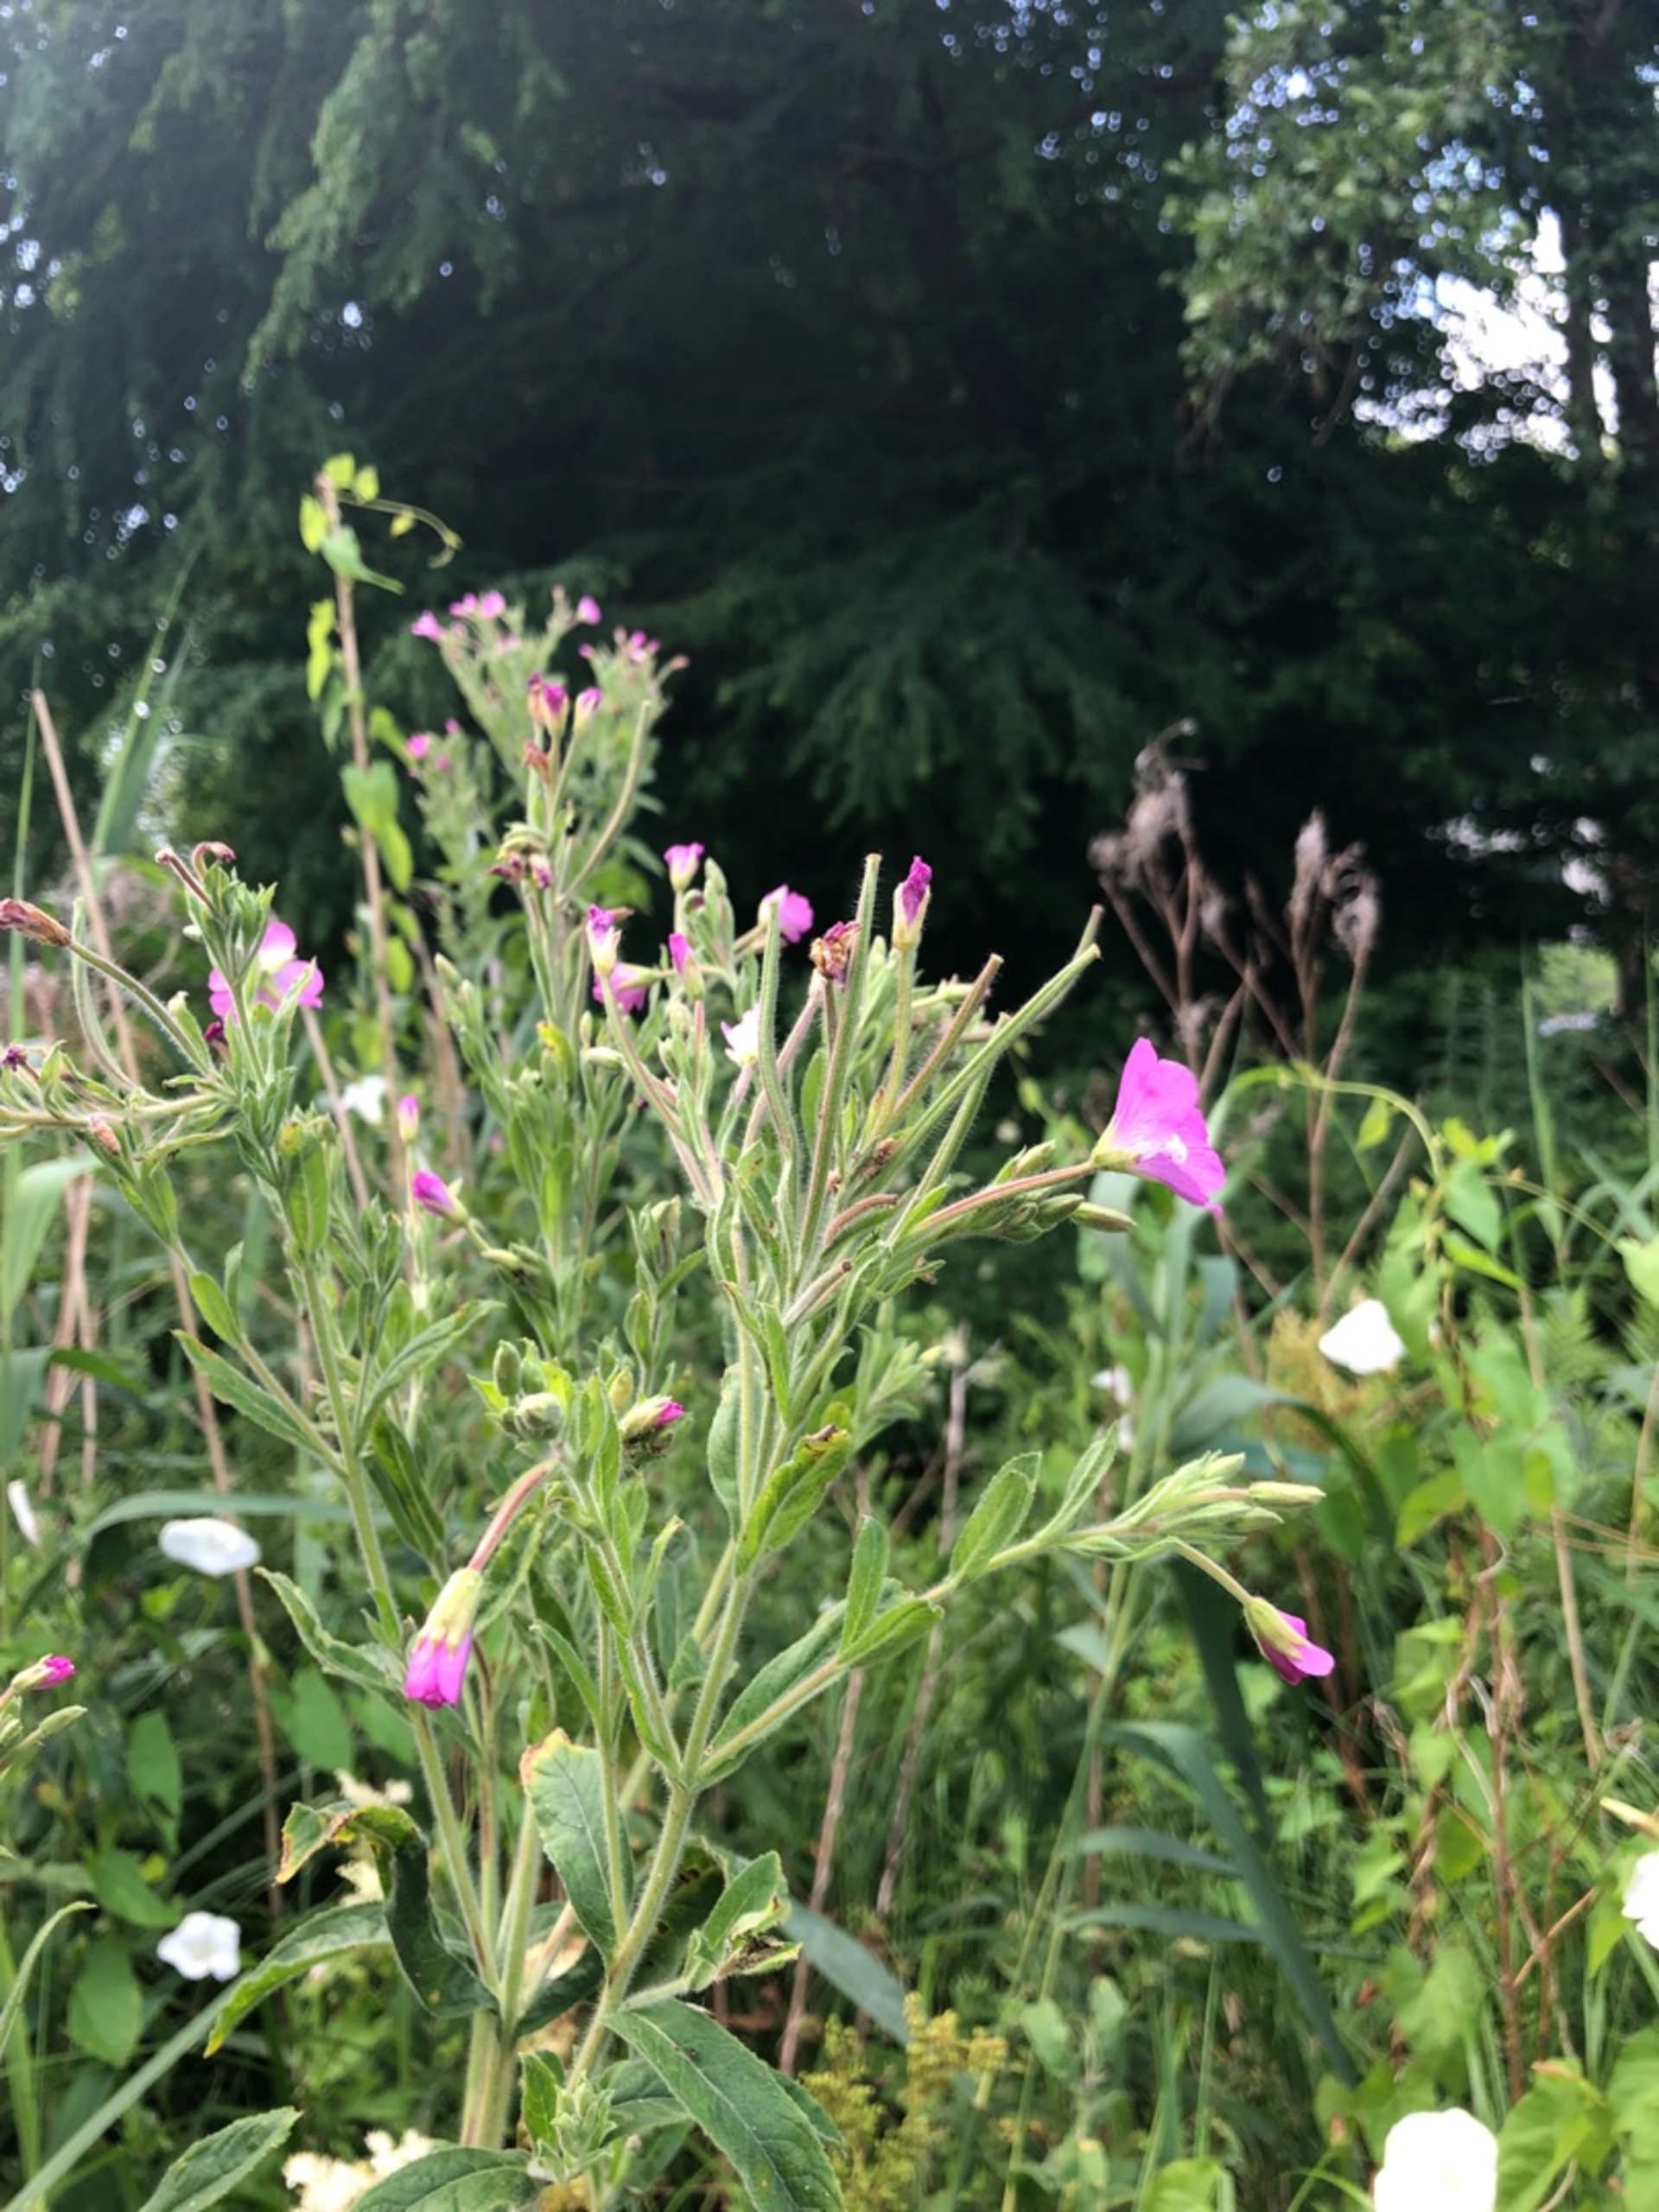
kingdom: Plantae
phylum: Tracheophyta
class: Magnoliopsida
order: Myrtales
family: Onagraceae
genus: Epilobium
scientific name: Epilobium hirsutum
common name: Lådden dueurt
